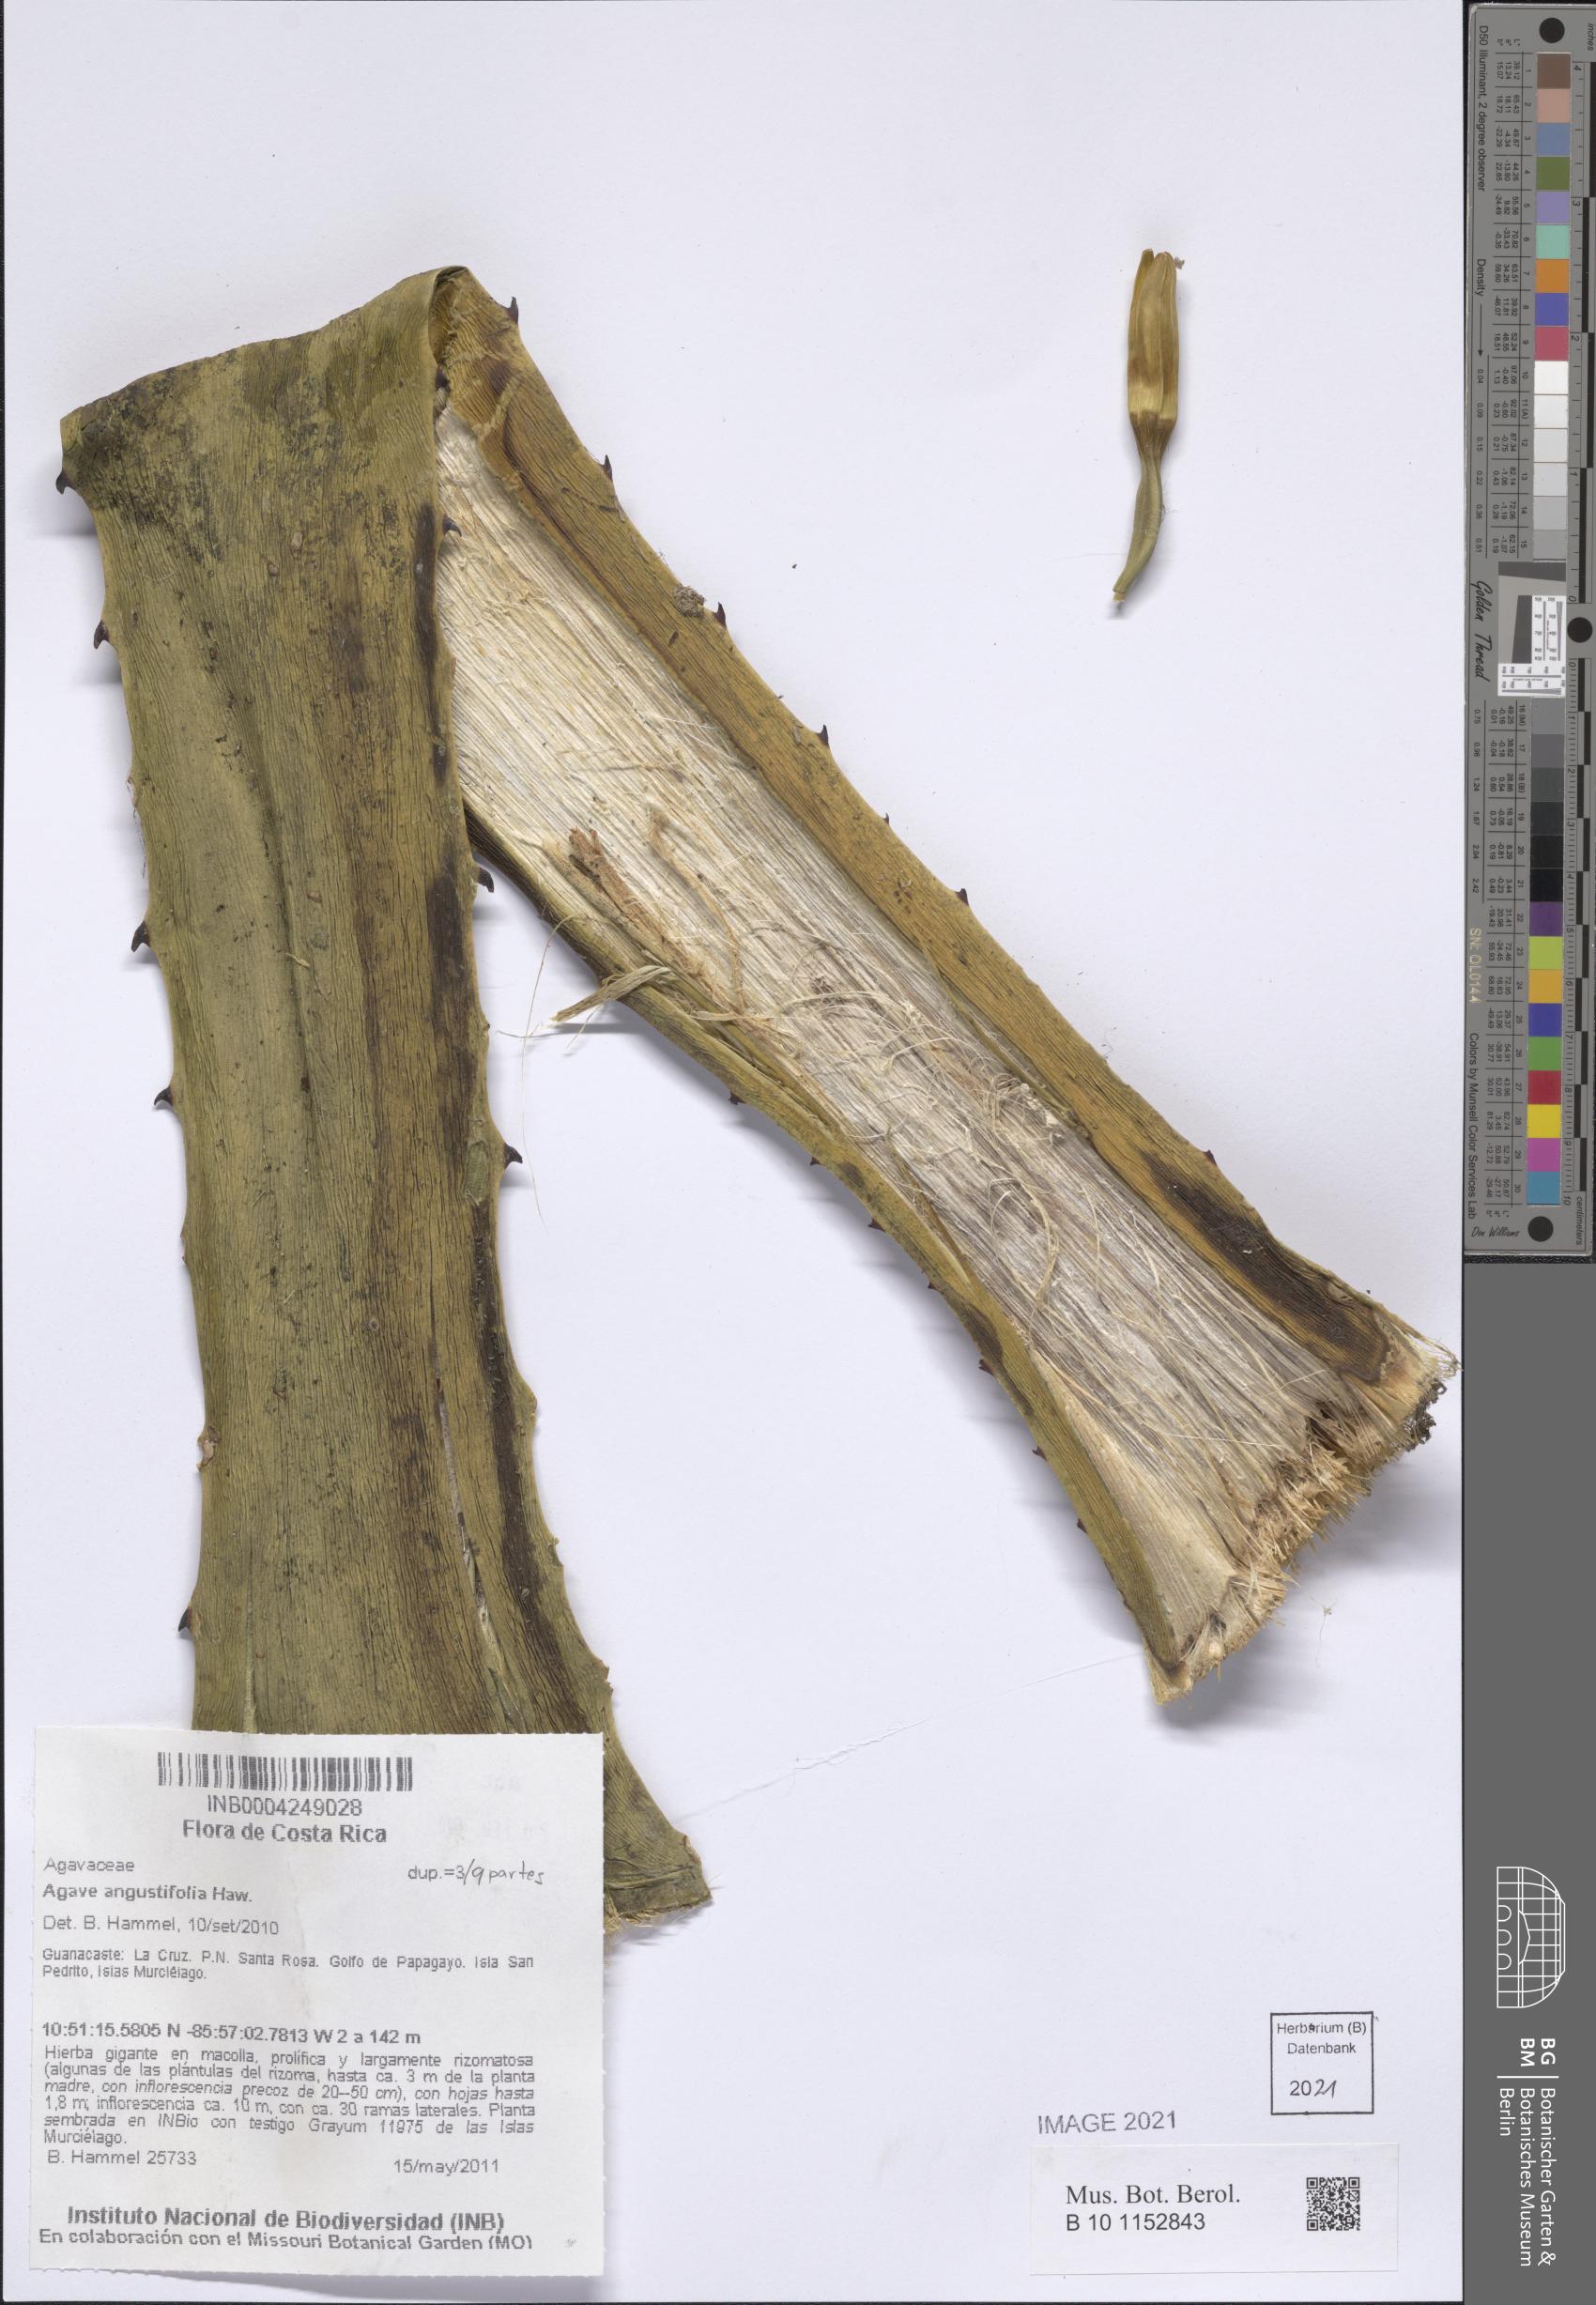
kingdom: Plantae
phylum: Tracheophyta
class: Liliopsida
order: Asparagales
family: Asparagaceae
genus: Agave
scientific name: Agave angustifolia
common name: Mescal agave
